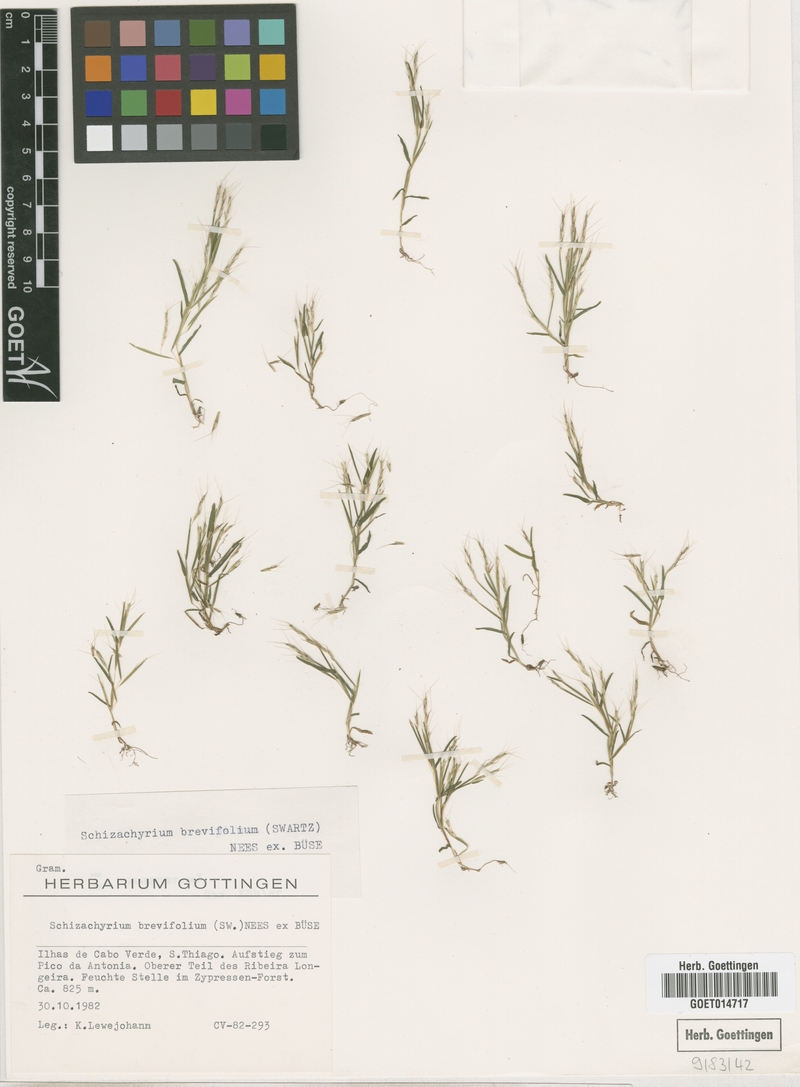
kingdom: Plantae
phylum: Tracheophyta
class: Liliopsida
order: Poales
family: Poaceae
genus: Schizachyrium
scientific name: Schizachyrium brevifolium
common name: Serillo dulce
